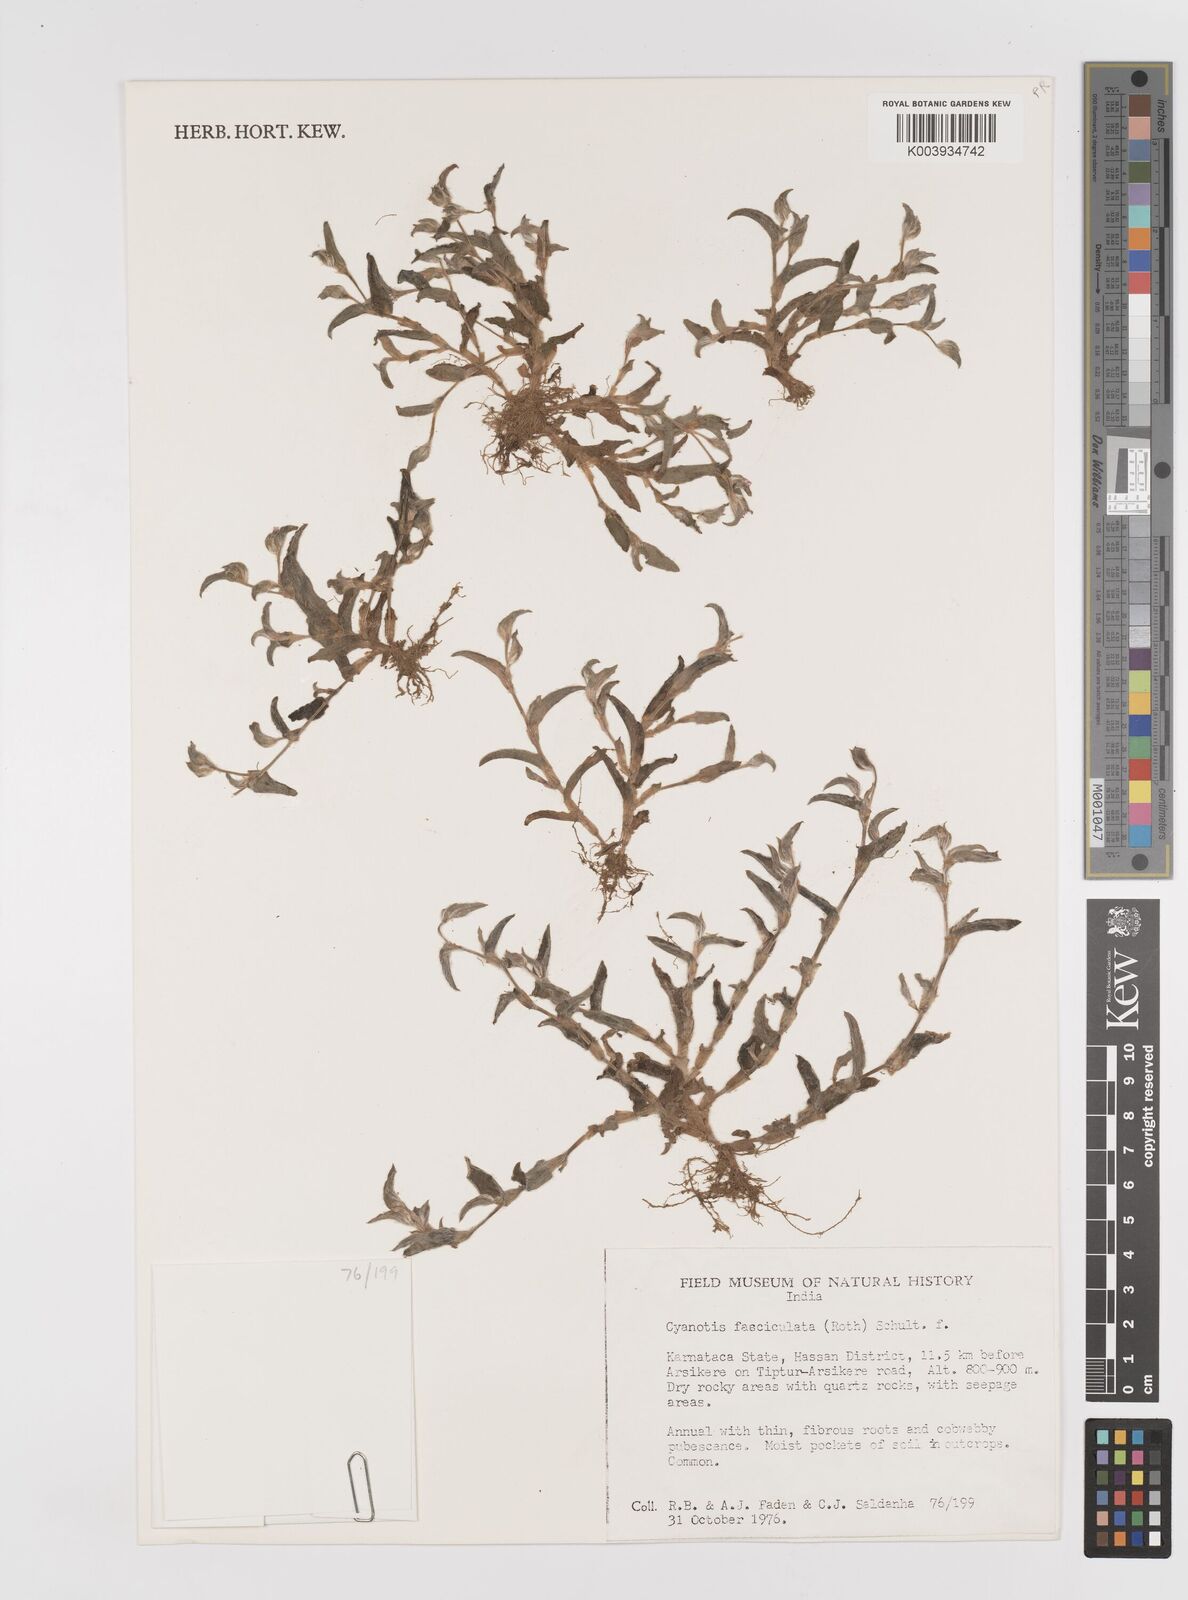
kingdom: Plantae
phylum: Tracheophyta
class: Liliopsida
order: Commelinales
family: Commelinaceae
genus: Cyanotis
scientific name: Cyanotis fasciculata
